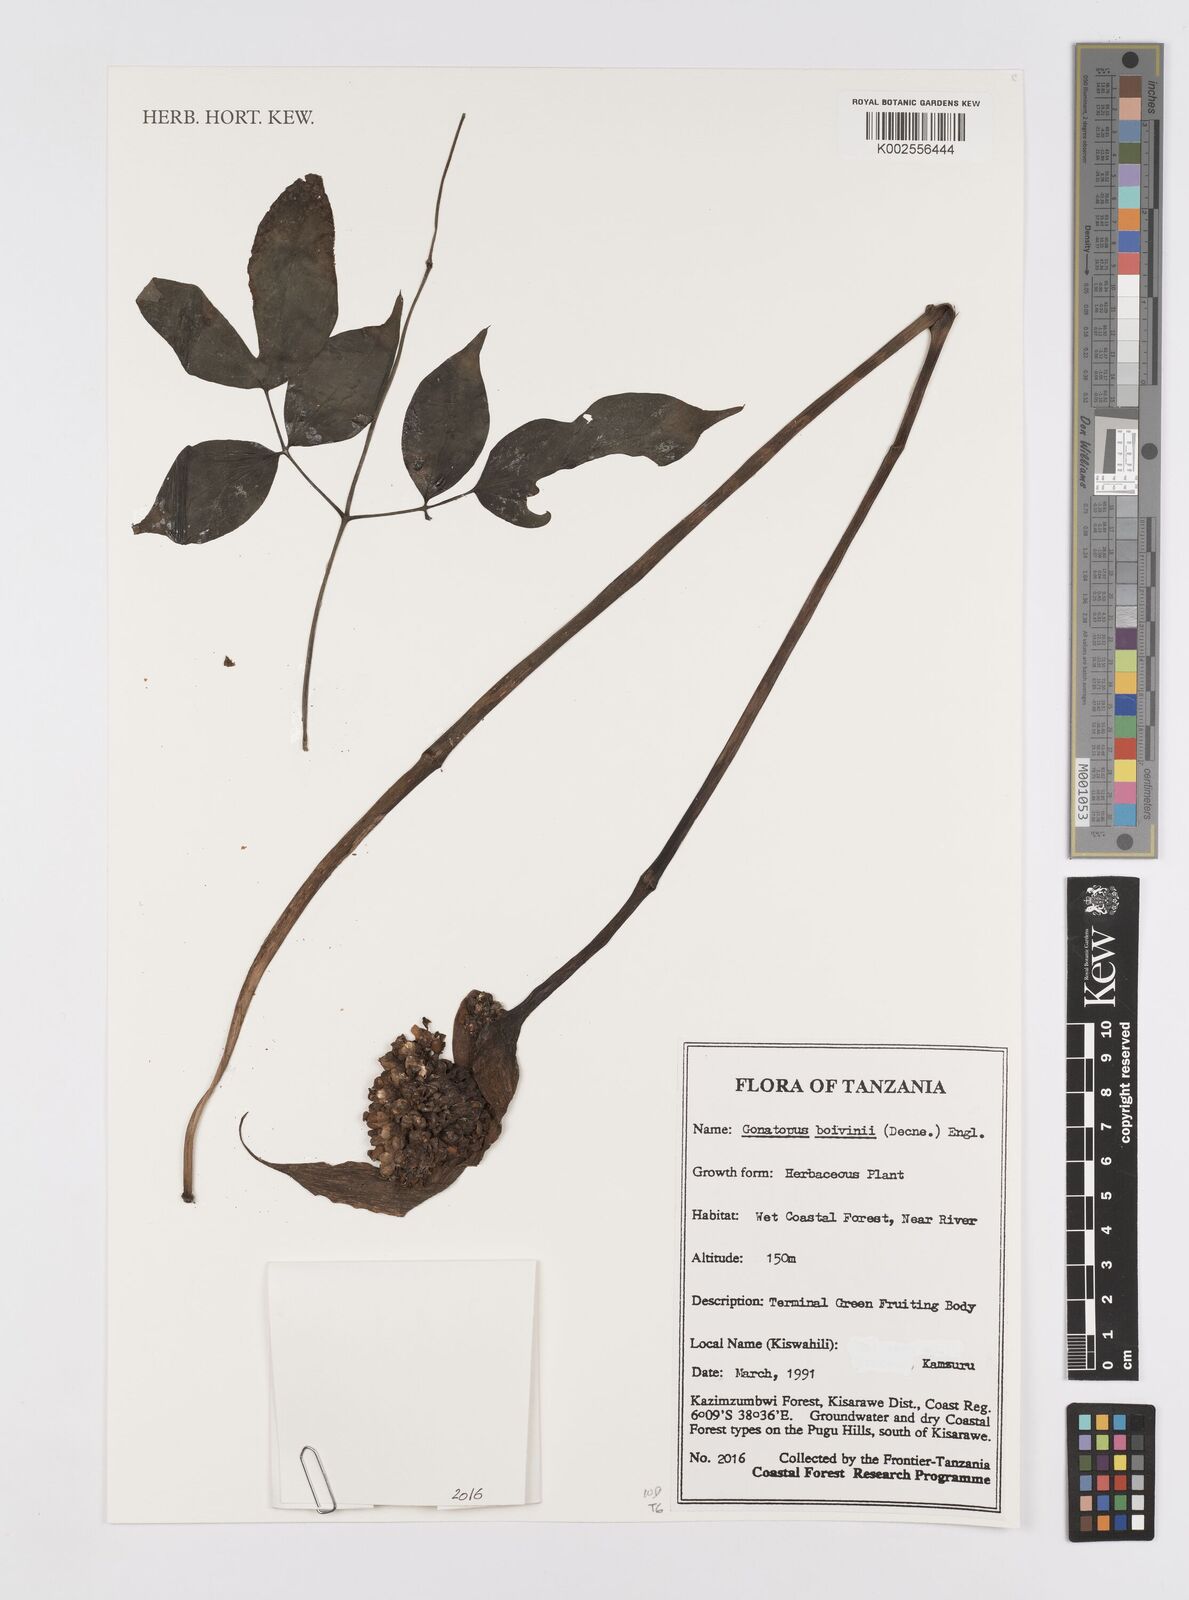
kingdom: Plantae
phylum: Tracheophyta
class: Liliopsida
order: Alismatales
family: Araceae
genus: Gonatopus
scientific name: Gonatopus boivinii
